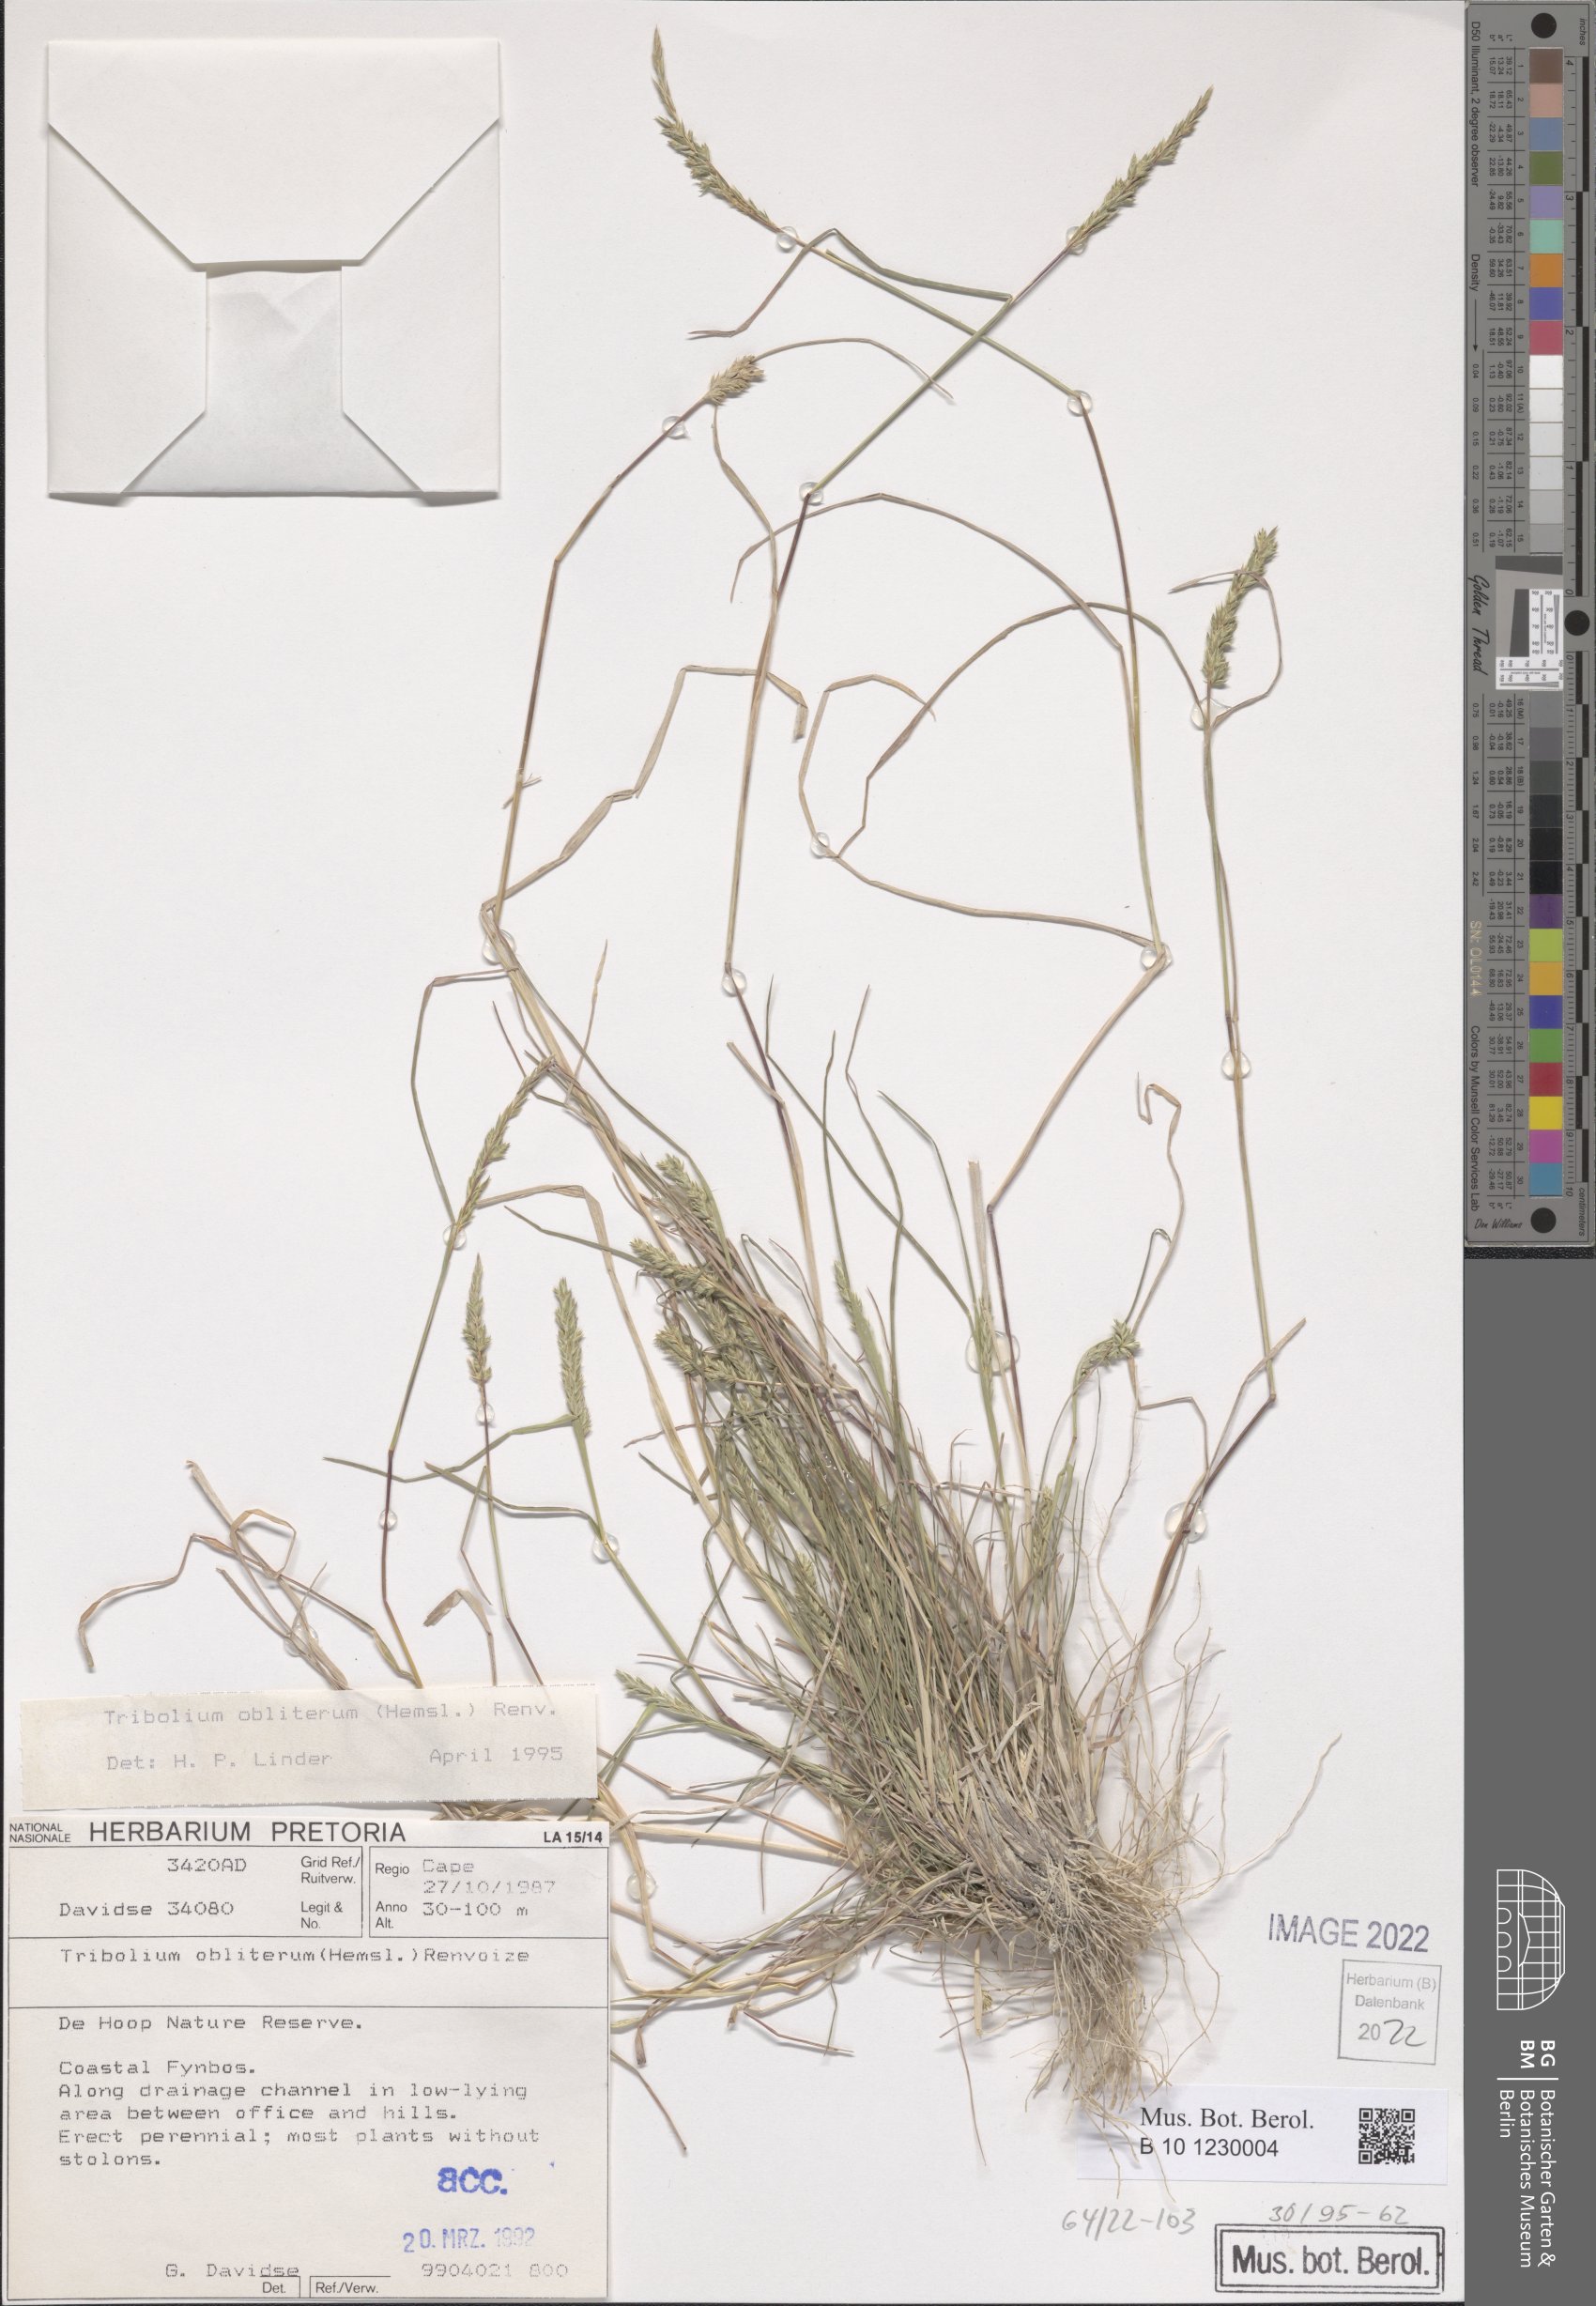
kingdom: Plantae
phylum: Tracheophyta
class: Liliopsida
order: Poales
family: Poaceae
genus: Tribolium
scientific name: Tribolium obliterum
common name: Capetown grass
